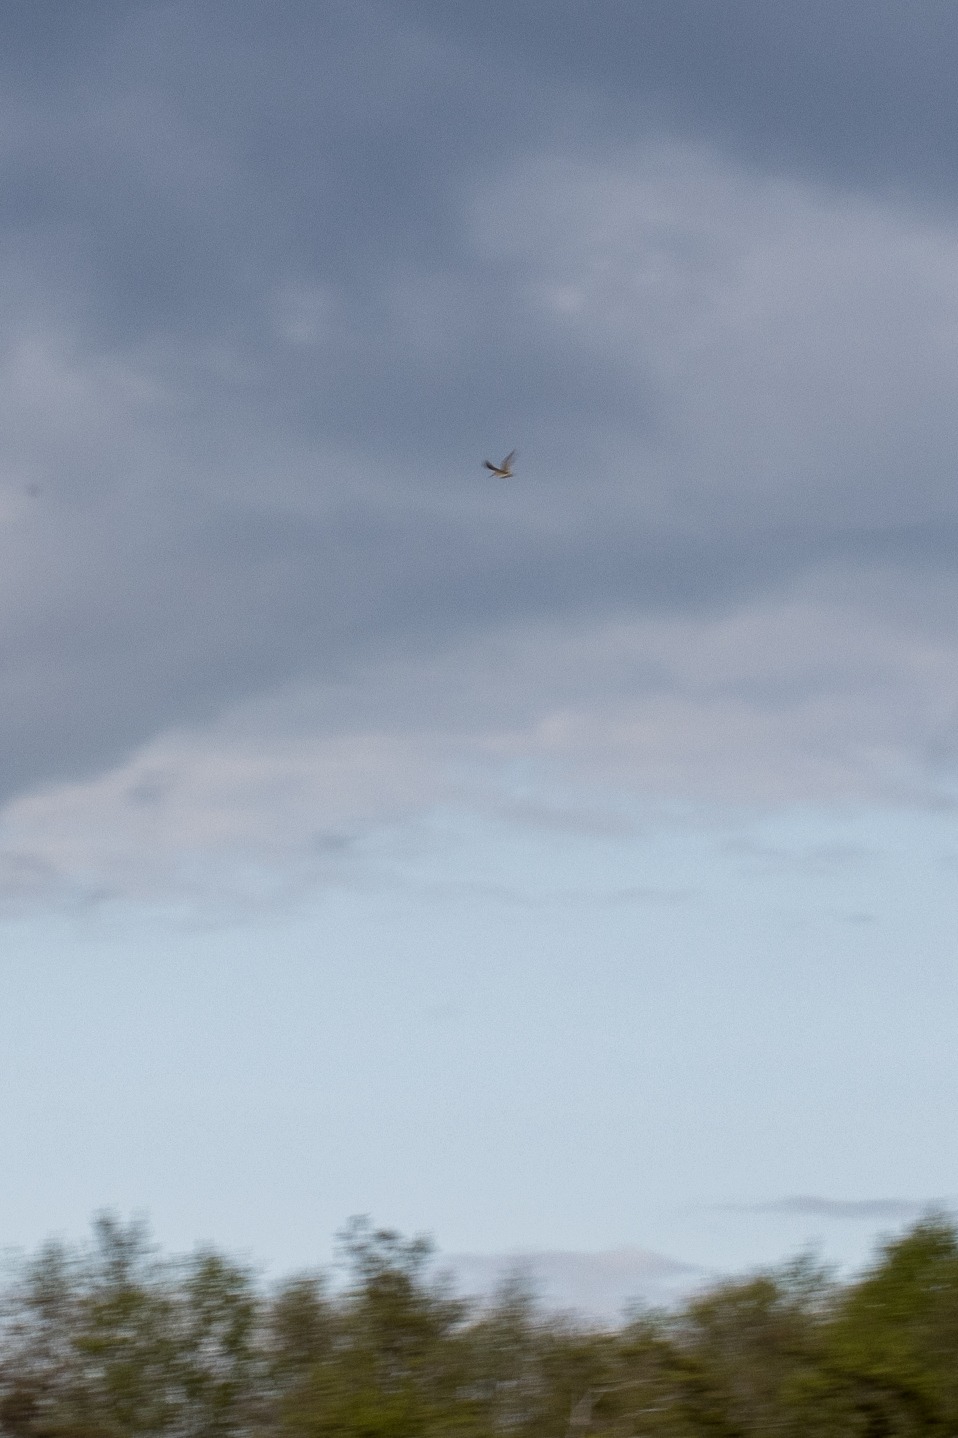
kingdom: Animalia
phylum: Chordata
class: Aves
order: Charadriiformes
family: Scolopacidae
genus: Gallinago
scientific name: Gallinago gallinago
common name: Dobbeltbekkasin
